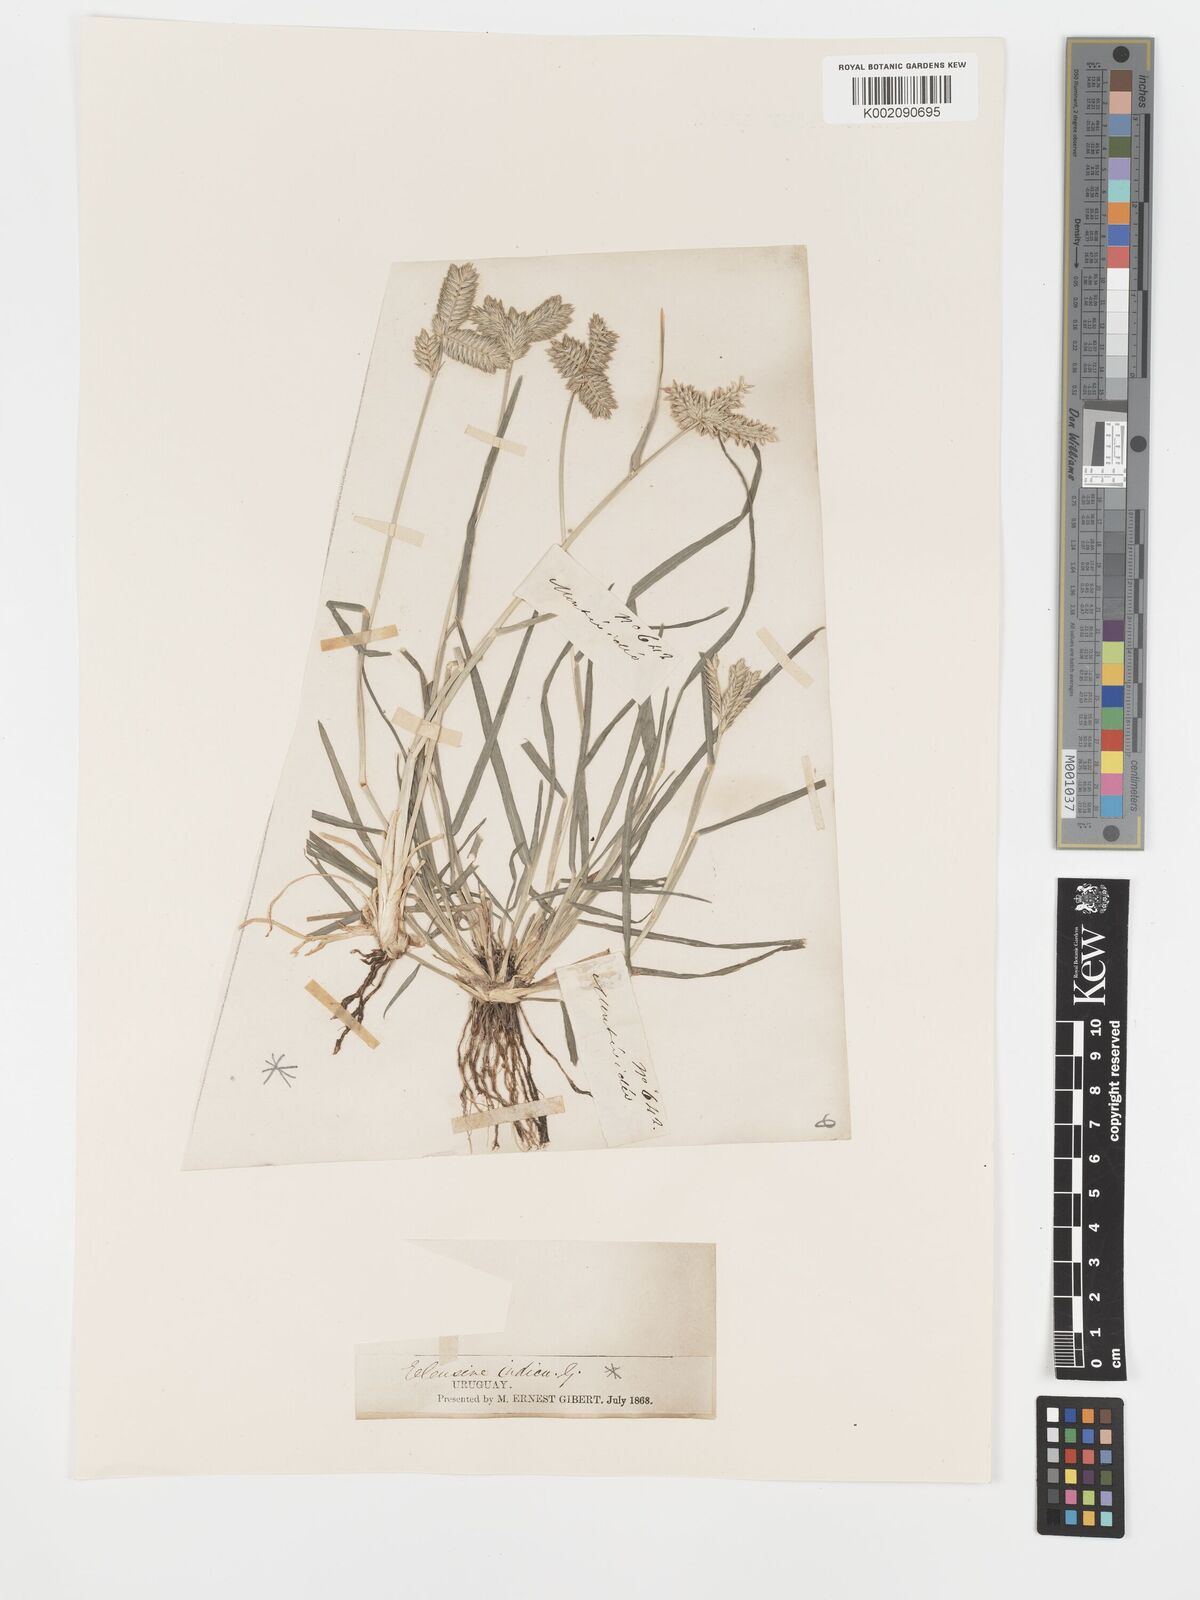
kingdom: Plantae
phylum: Tracheophyta
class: Liliopsida
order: Poales
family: Poaceae
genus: Eleusine
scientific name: Eleusine tristachya
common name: American yard-grass
